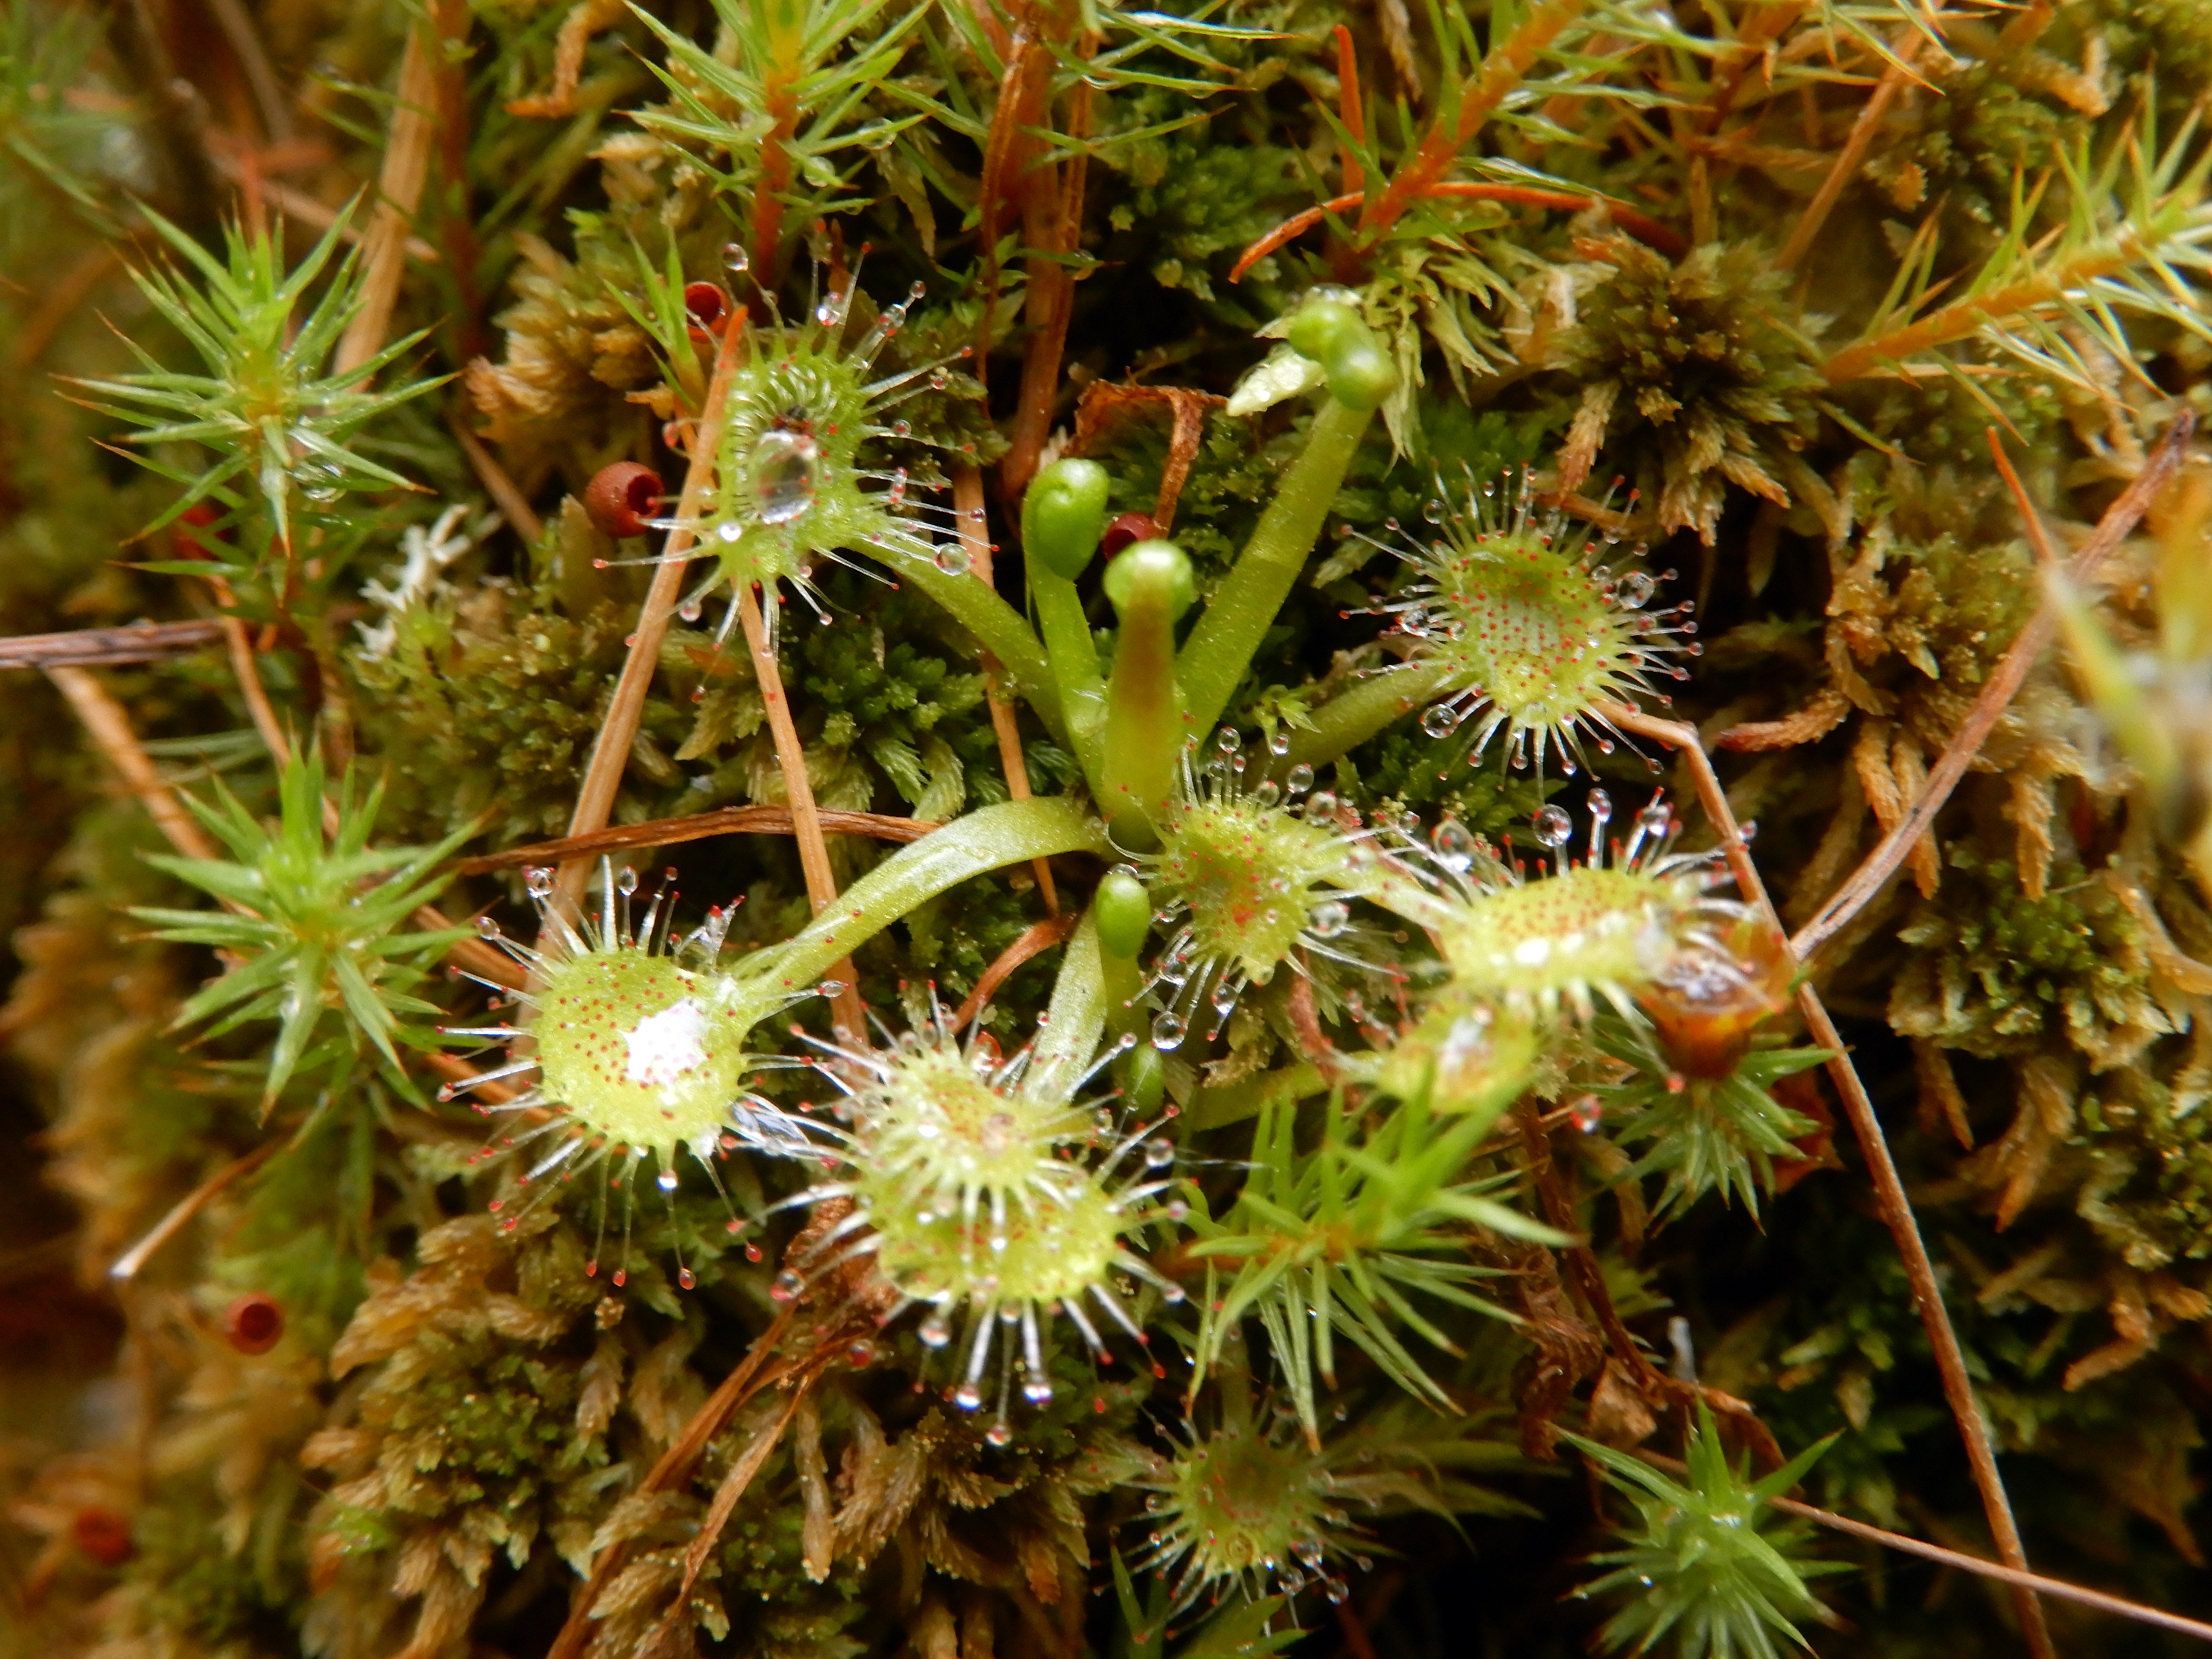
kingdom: Plantae
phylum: Tracheophyta
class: Magnoliopsida
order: Caryophyllales
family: Droseraceae
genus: Drosera
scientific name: Drosera rotundifolia
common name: Round-leaved sundew
